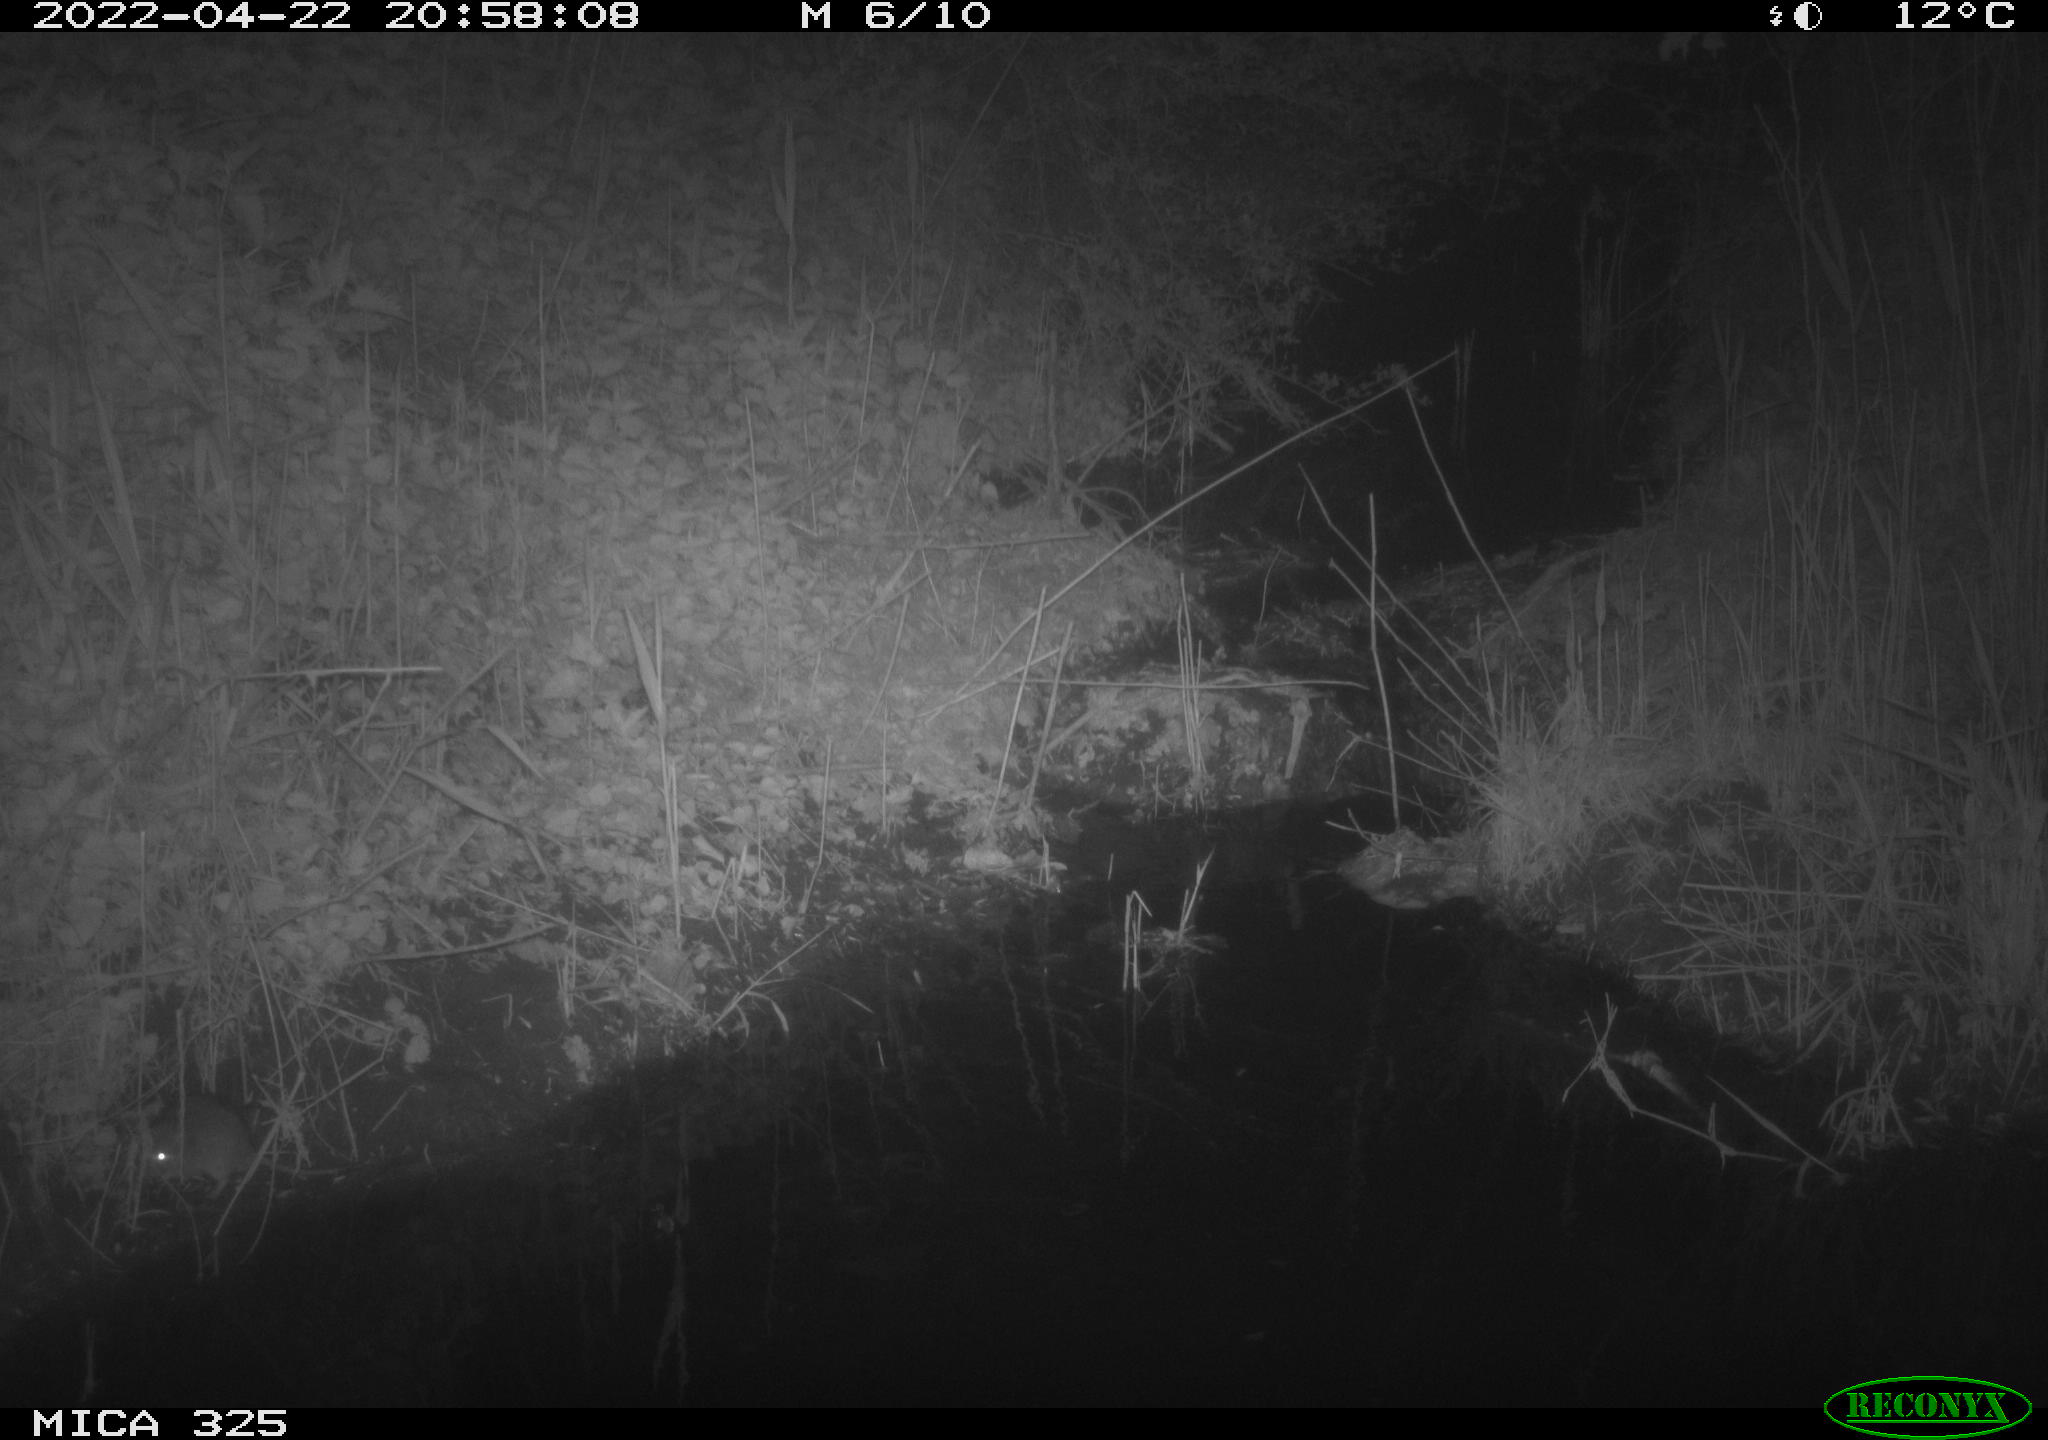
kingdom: Animalia
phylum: Chordata
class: Mammalia
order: Rodentia
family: Muridae
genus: Rattus
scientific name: Rattus norvegicus
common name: Brown rat
